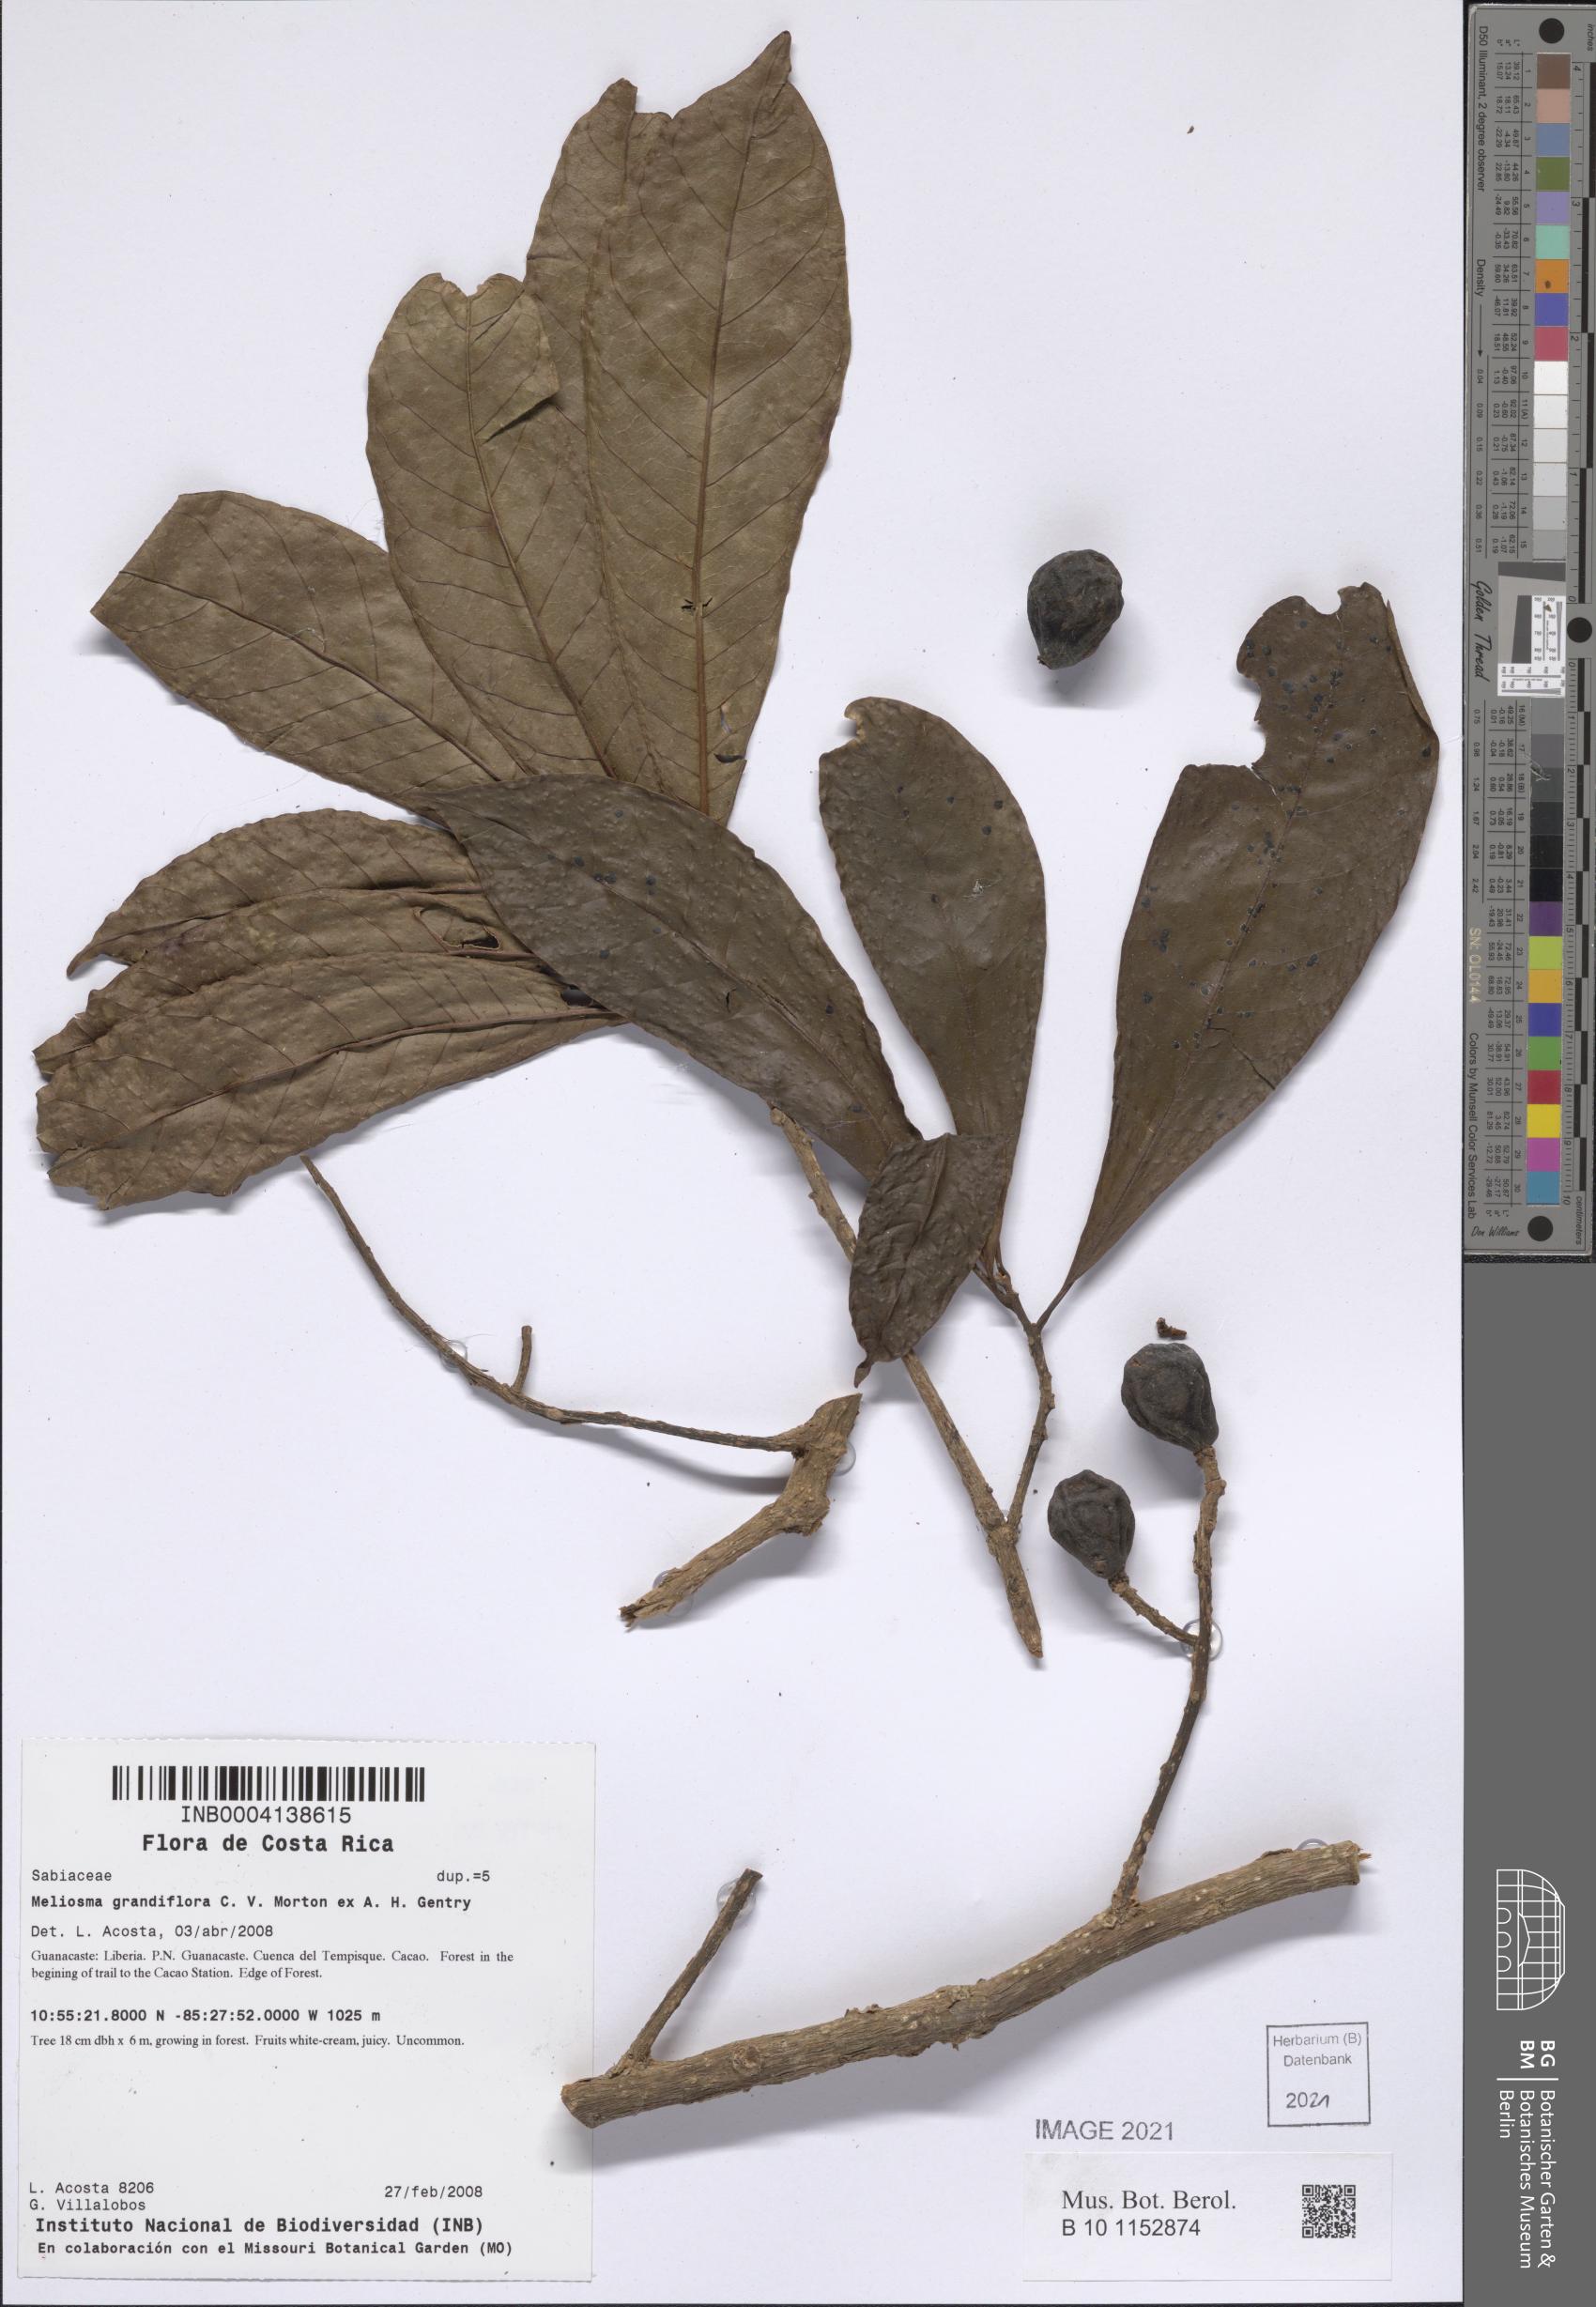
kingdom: Plantae
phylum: Tracheophyta
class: Magnoliopsida
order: Proteales
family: Sabiaceae
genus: Meliosma
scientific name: Meliosma glabrata
